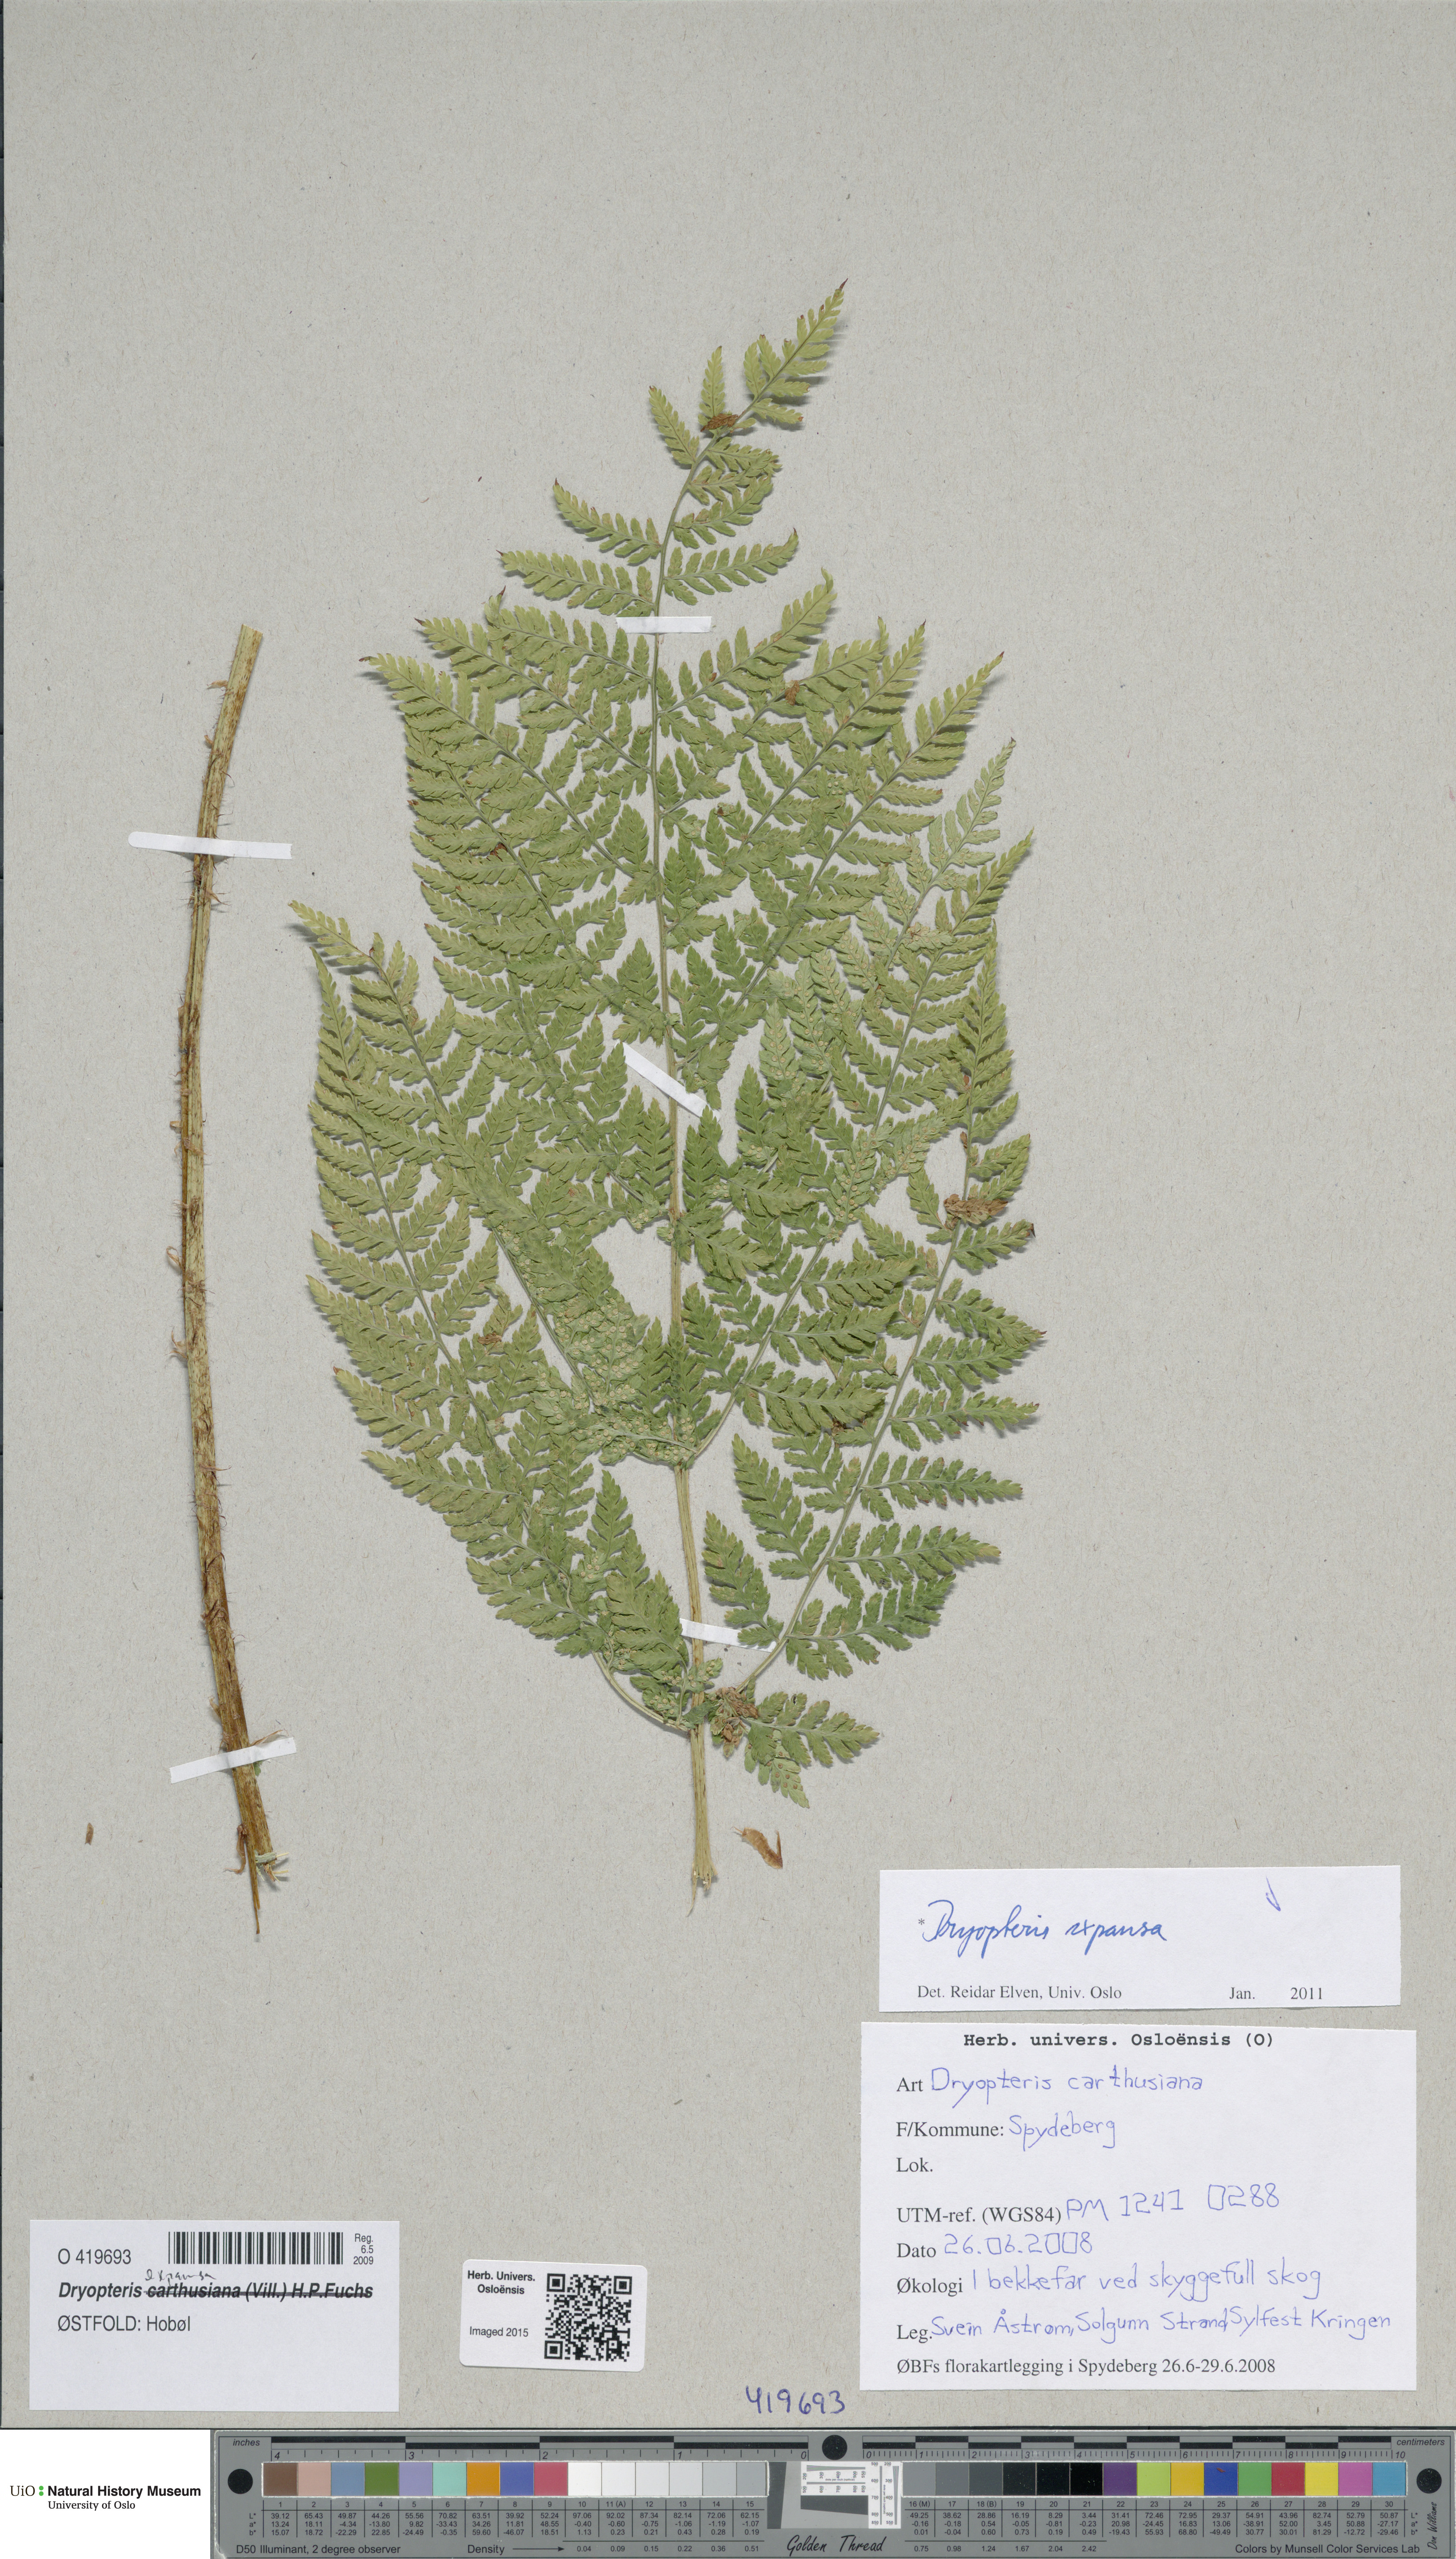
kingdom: Plantae
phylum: Tracheophyta
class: Polypodiopsida
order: Polypodiales
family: Dryopteridaceae
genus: Dryopteris
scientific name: Dryopteris expansa
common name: Northern buckler fern
